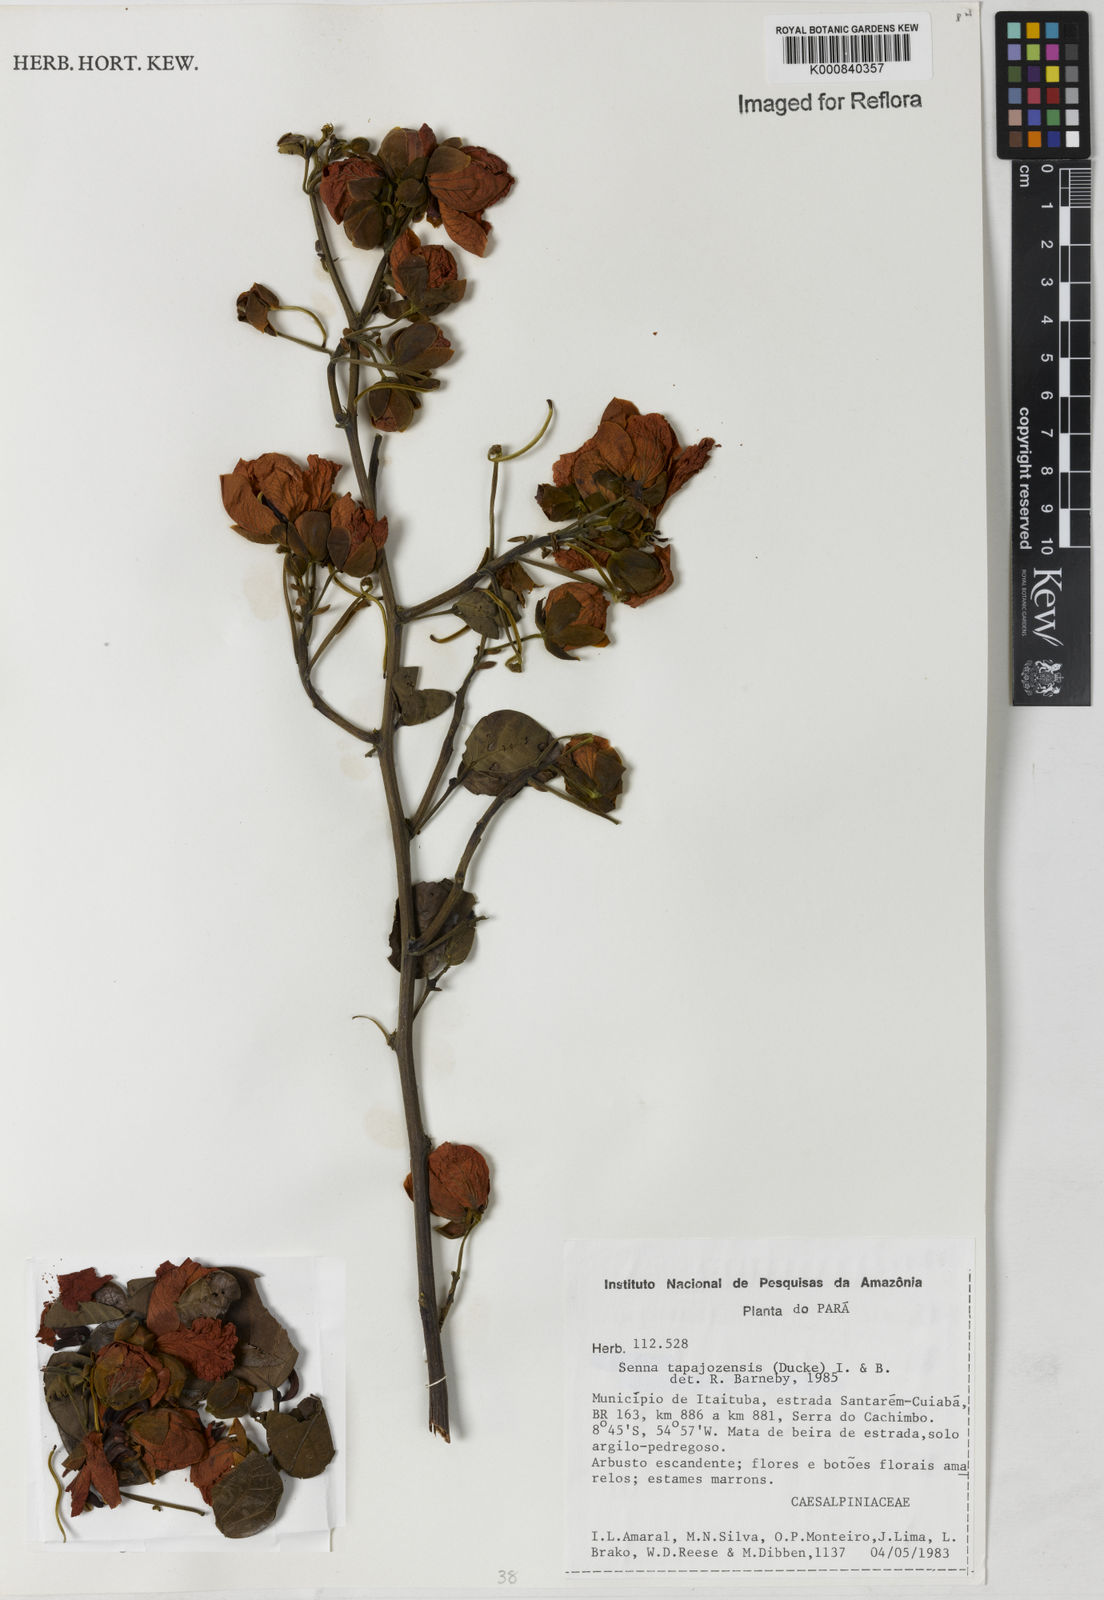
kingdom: Plantae
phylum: Tracheophyta
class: Magnoliopsida
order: Fabales
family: Fabaceae
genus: Senna
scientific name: Senna tapajozensis
